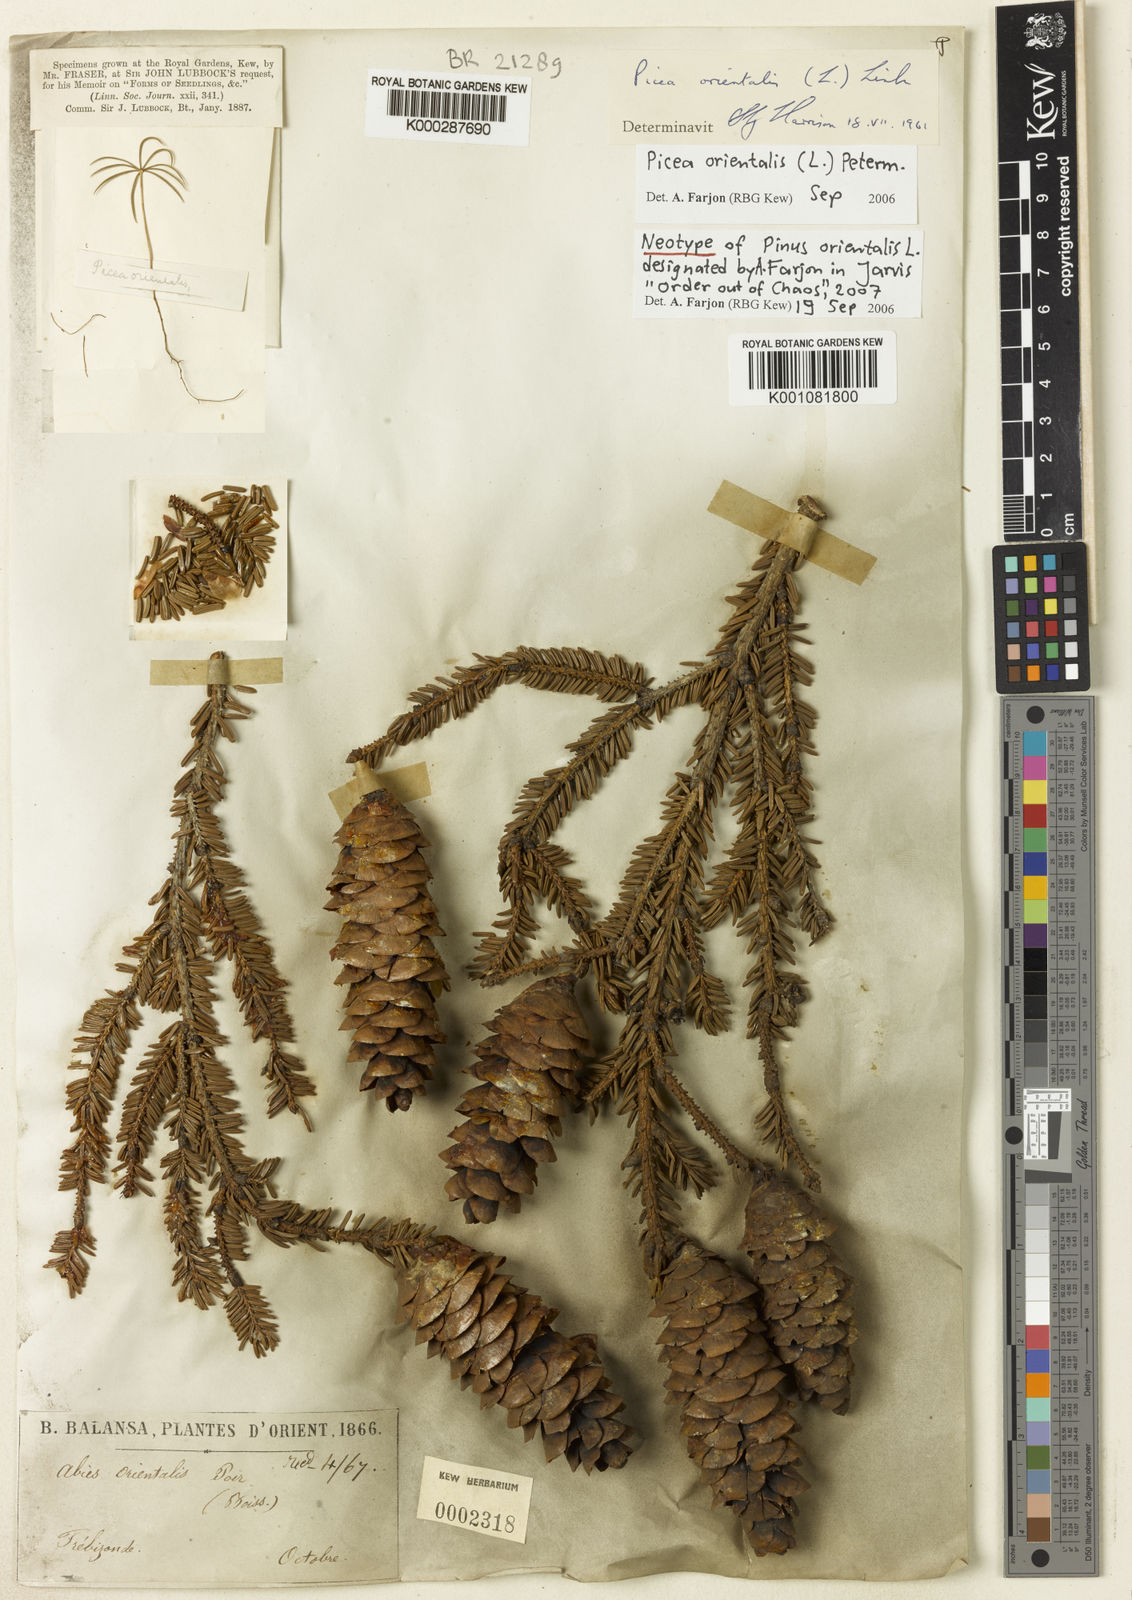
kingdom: Plantae
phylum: Tracheophyta
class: Pinopsida
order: Pinales
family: Pinaceae
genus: Picea
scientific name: Picea orientalis
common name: Oriental spruce
